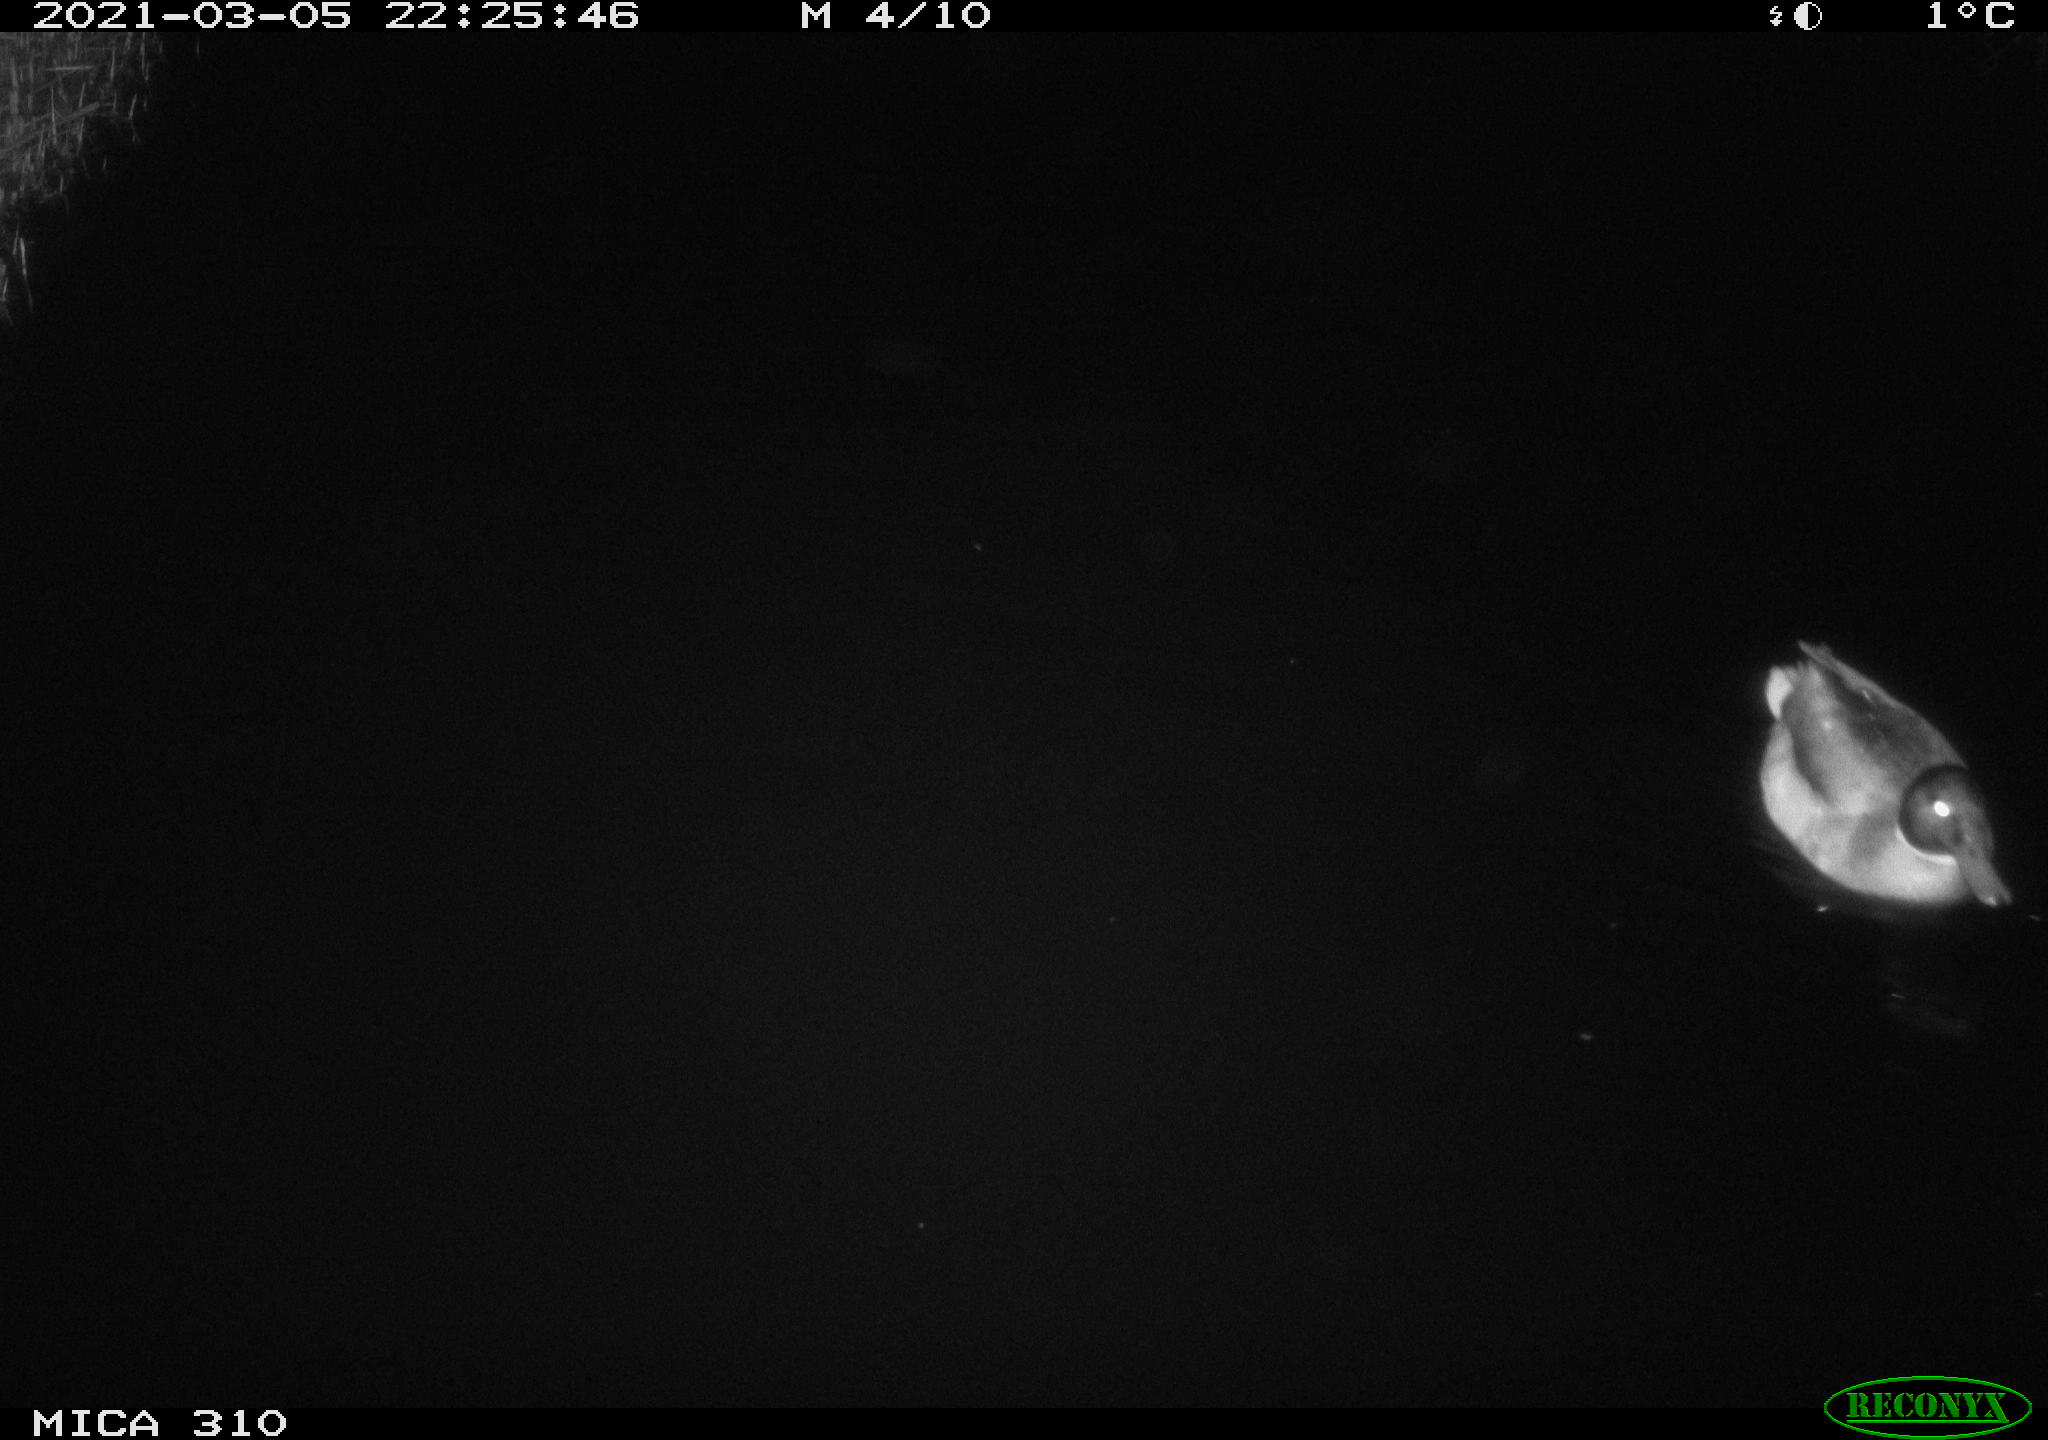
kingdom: Animalia
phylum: Chordata
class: Aves
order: Anseriformes
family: Anatidae
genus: Anas
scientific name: Anas platyrhynchos
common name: Mallard
